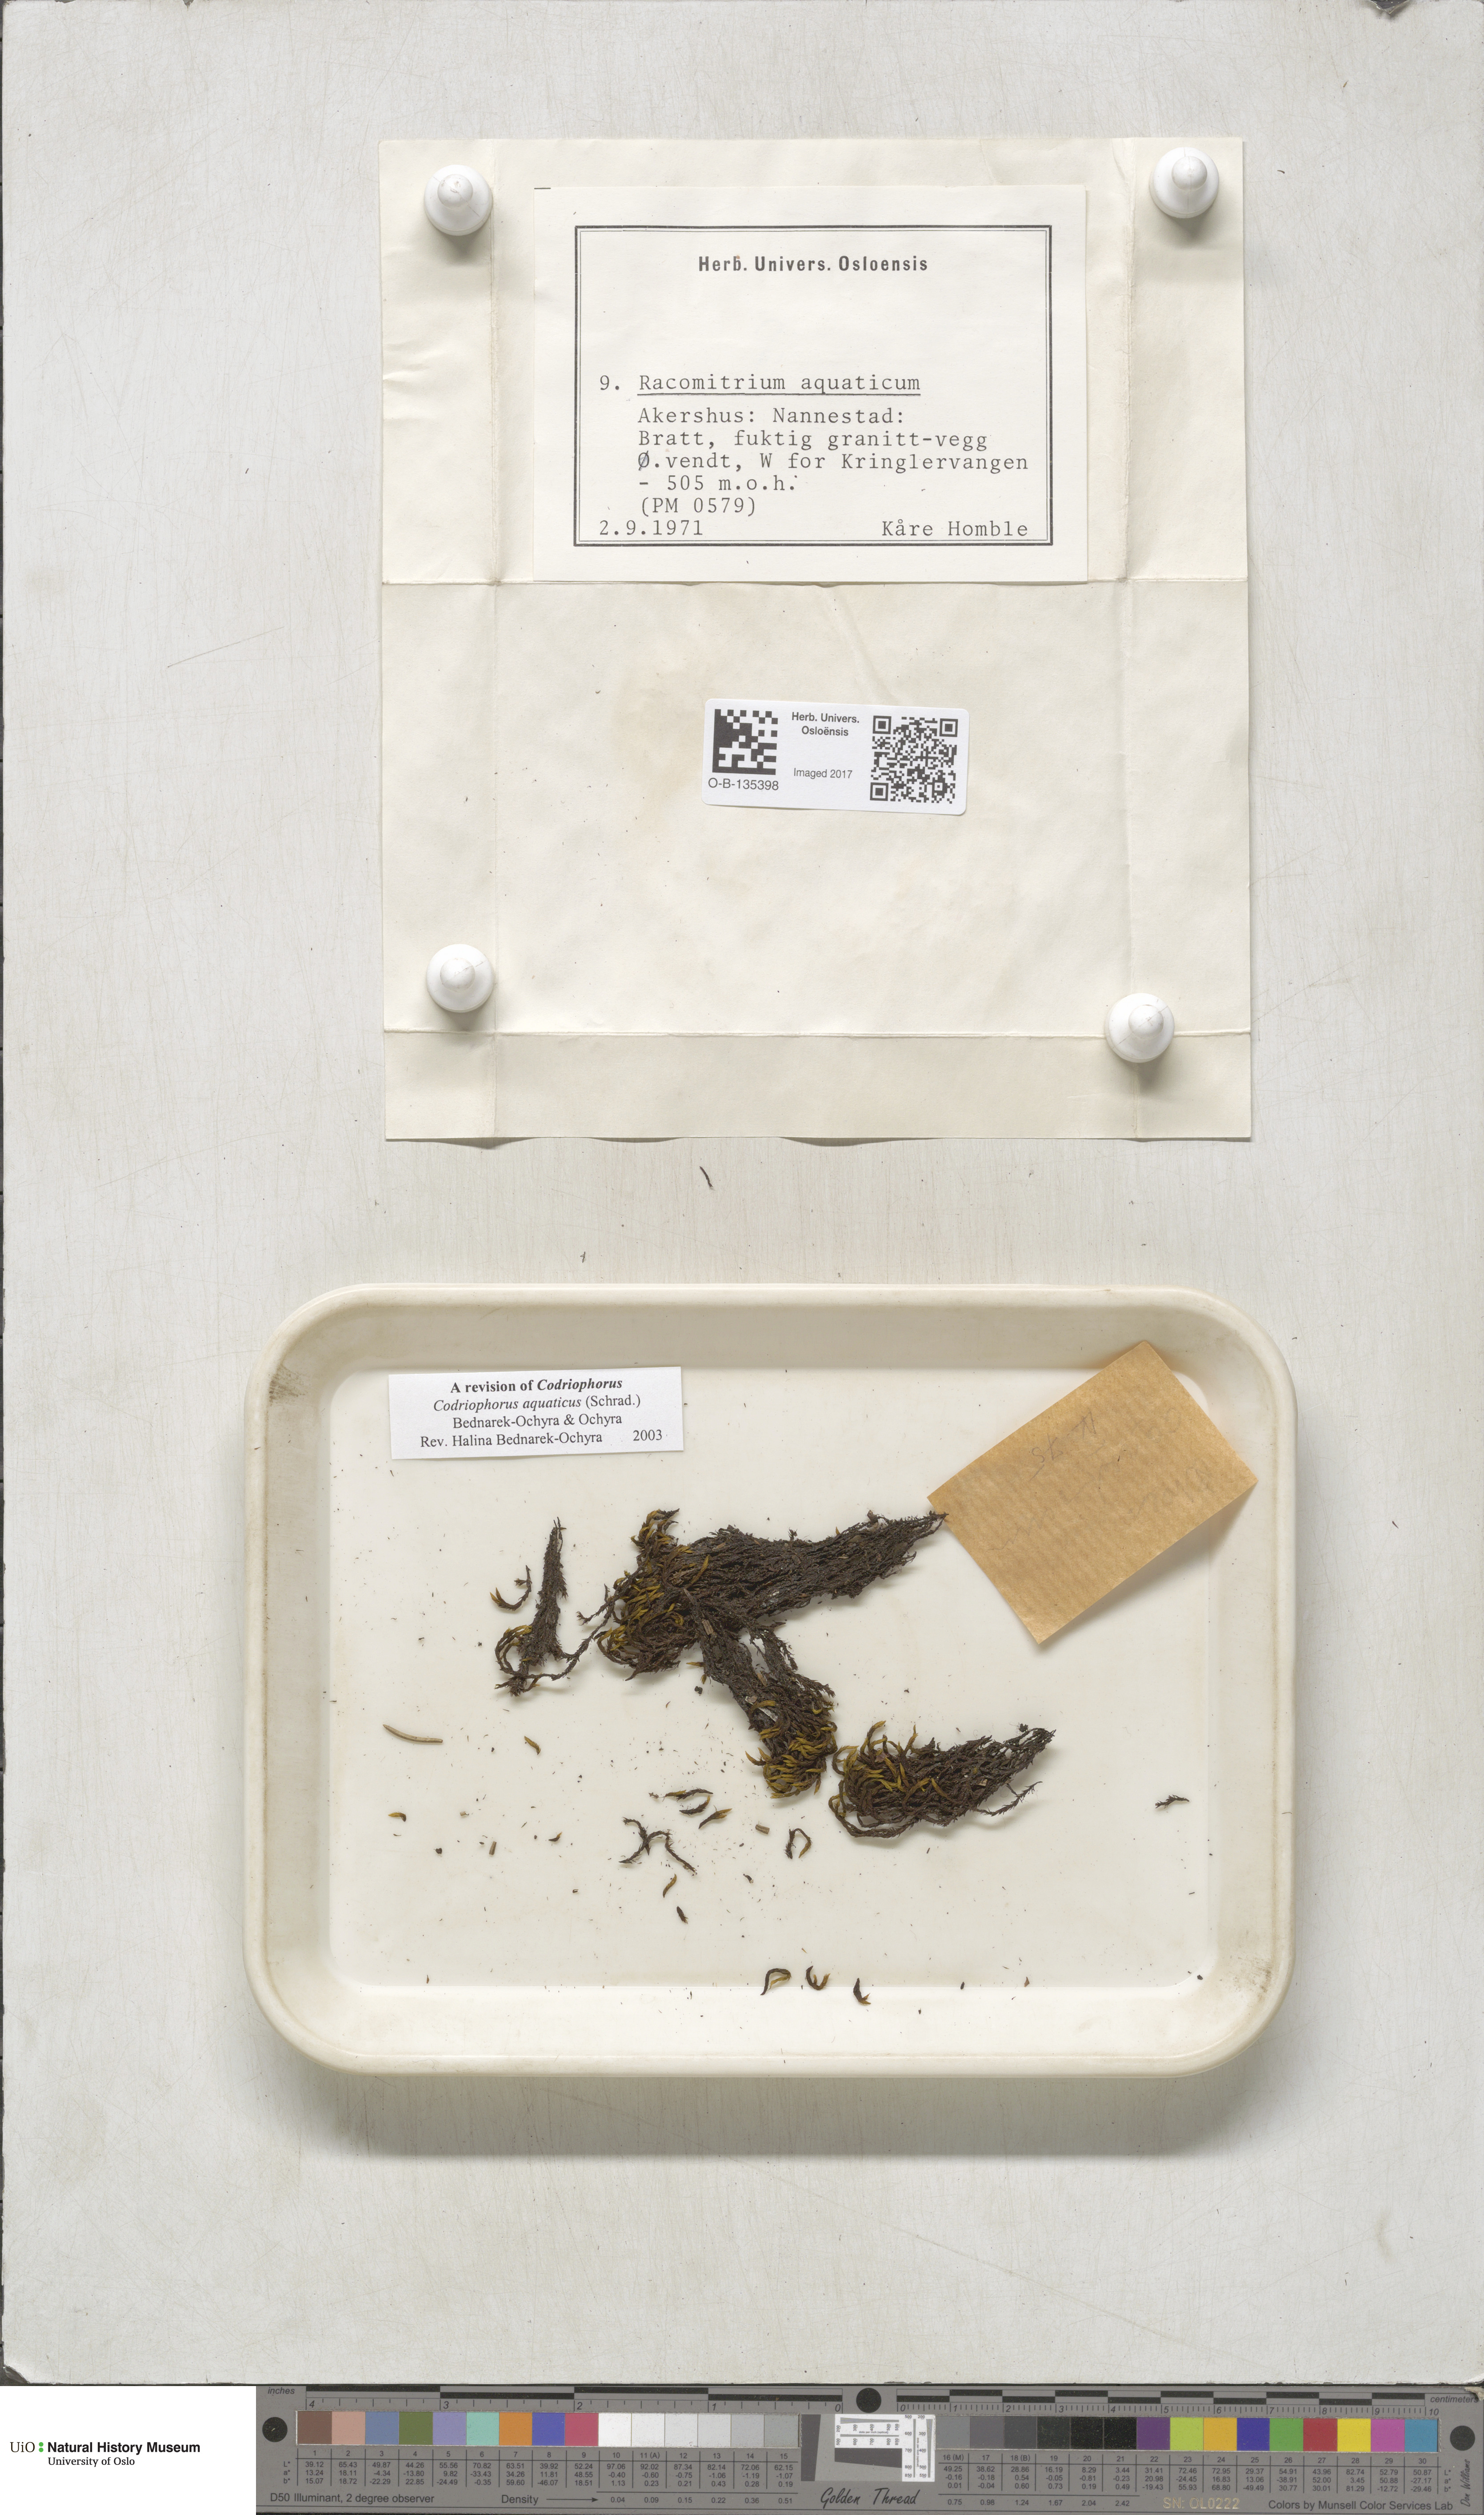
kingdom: Plantae
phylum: Bryophyta
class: Bryopsida
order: Grimmiales
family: Grimmiaceae
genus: Codriophorus
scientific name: Codriophorus aquaticus
